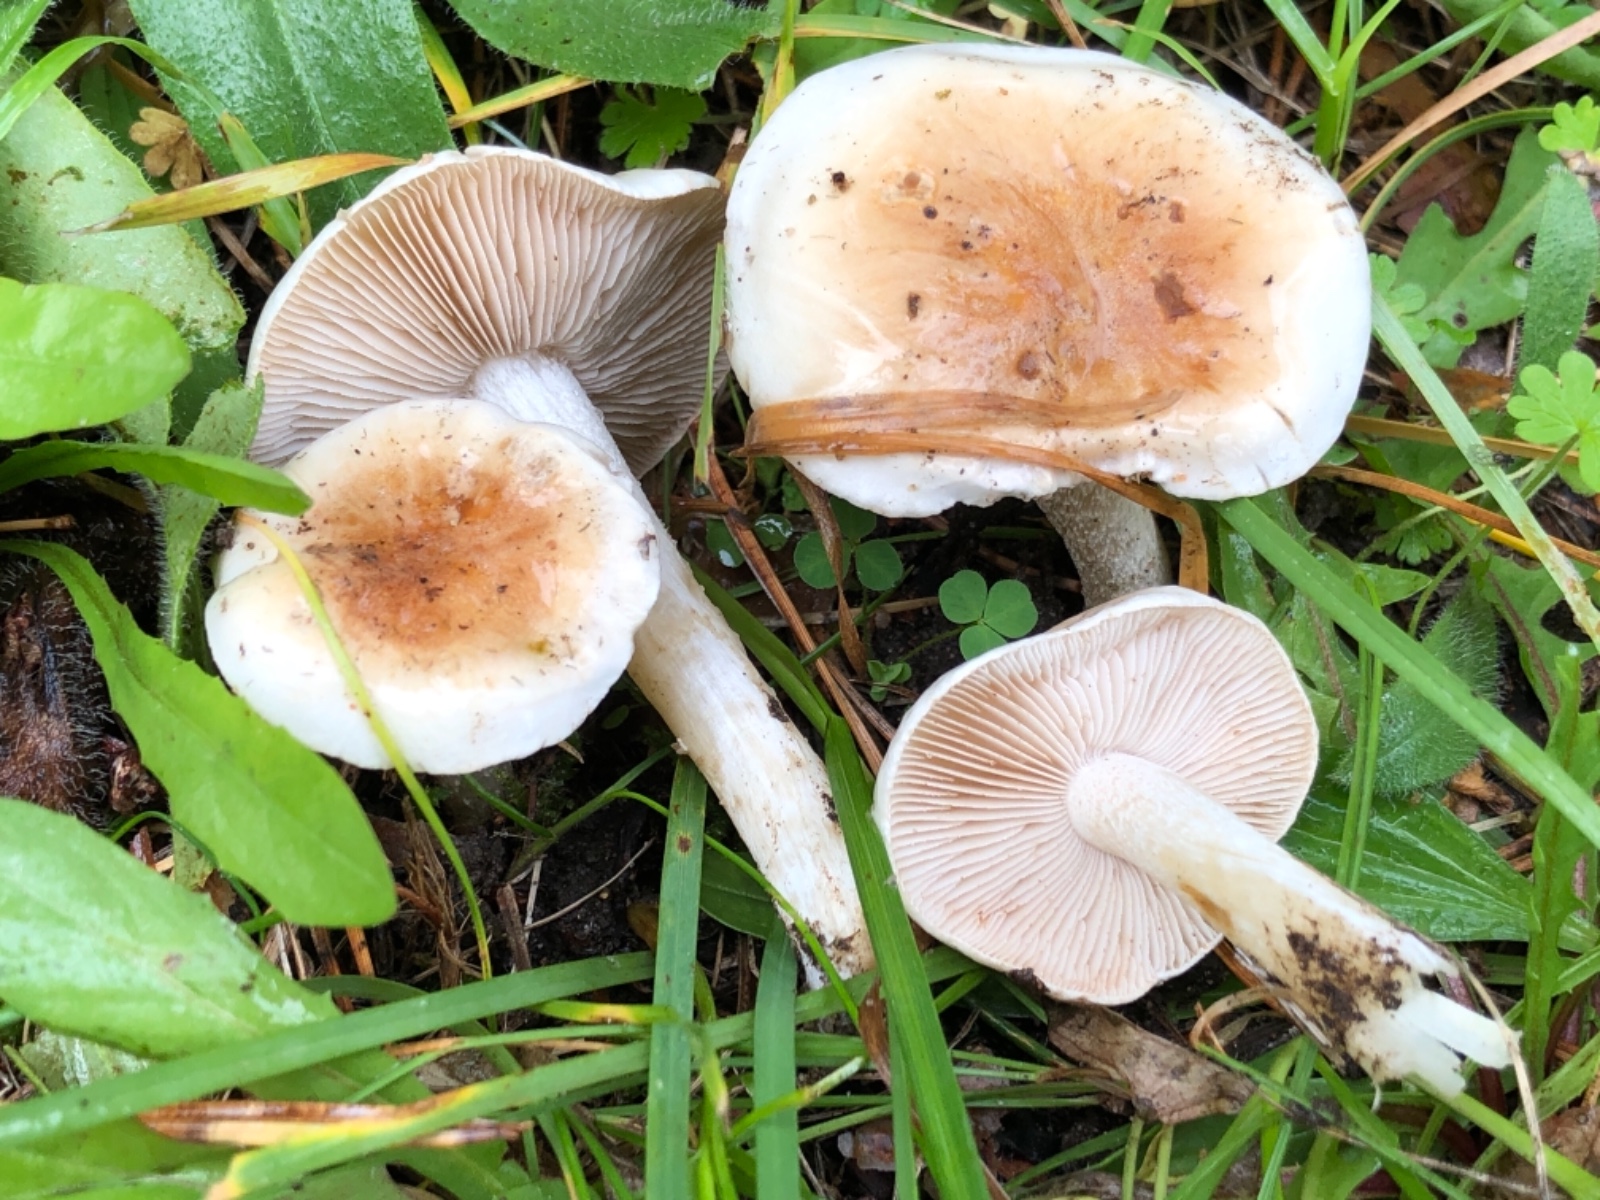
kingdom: Fungi
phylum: Basidiomycota
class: Agaricomycetes
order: Agaricales
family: Hymenogastraceae
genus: Hebeloma
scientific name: Hebeloma
